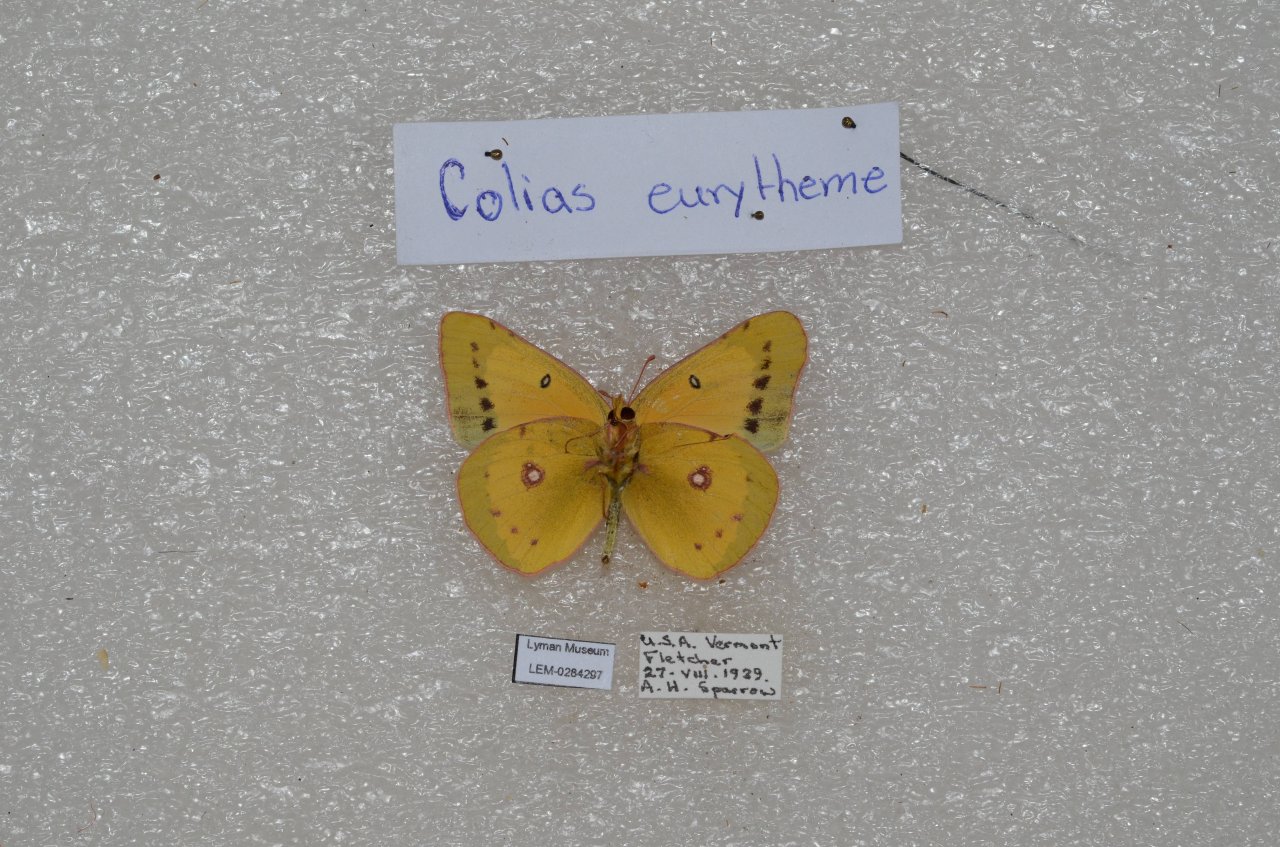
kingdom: Animalia
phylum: Arthropoda
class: Insecta
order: Lepidoptera
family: Pieridae
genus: Colias
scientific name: Colias eurytheme
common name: Orange Sulphur
